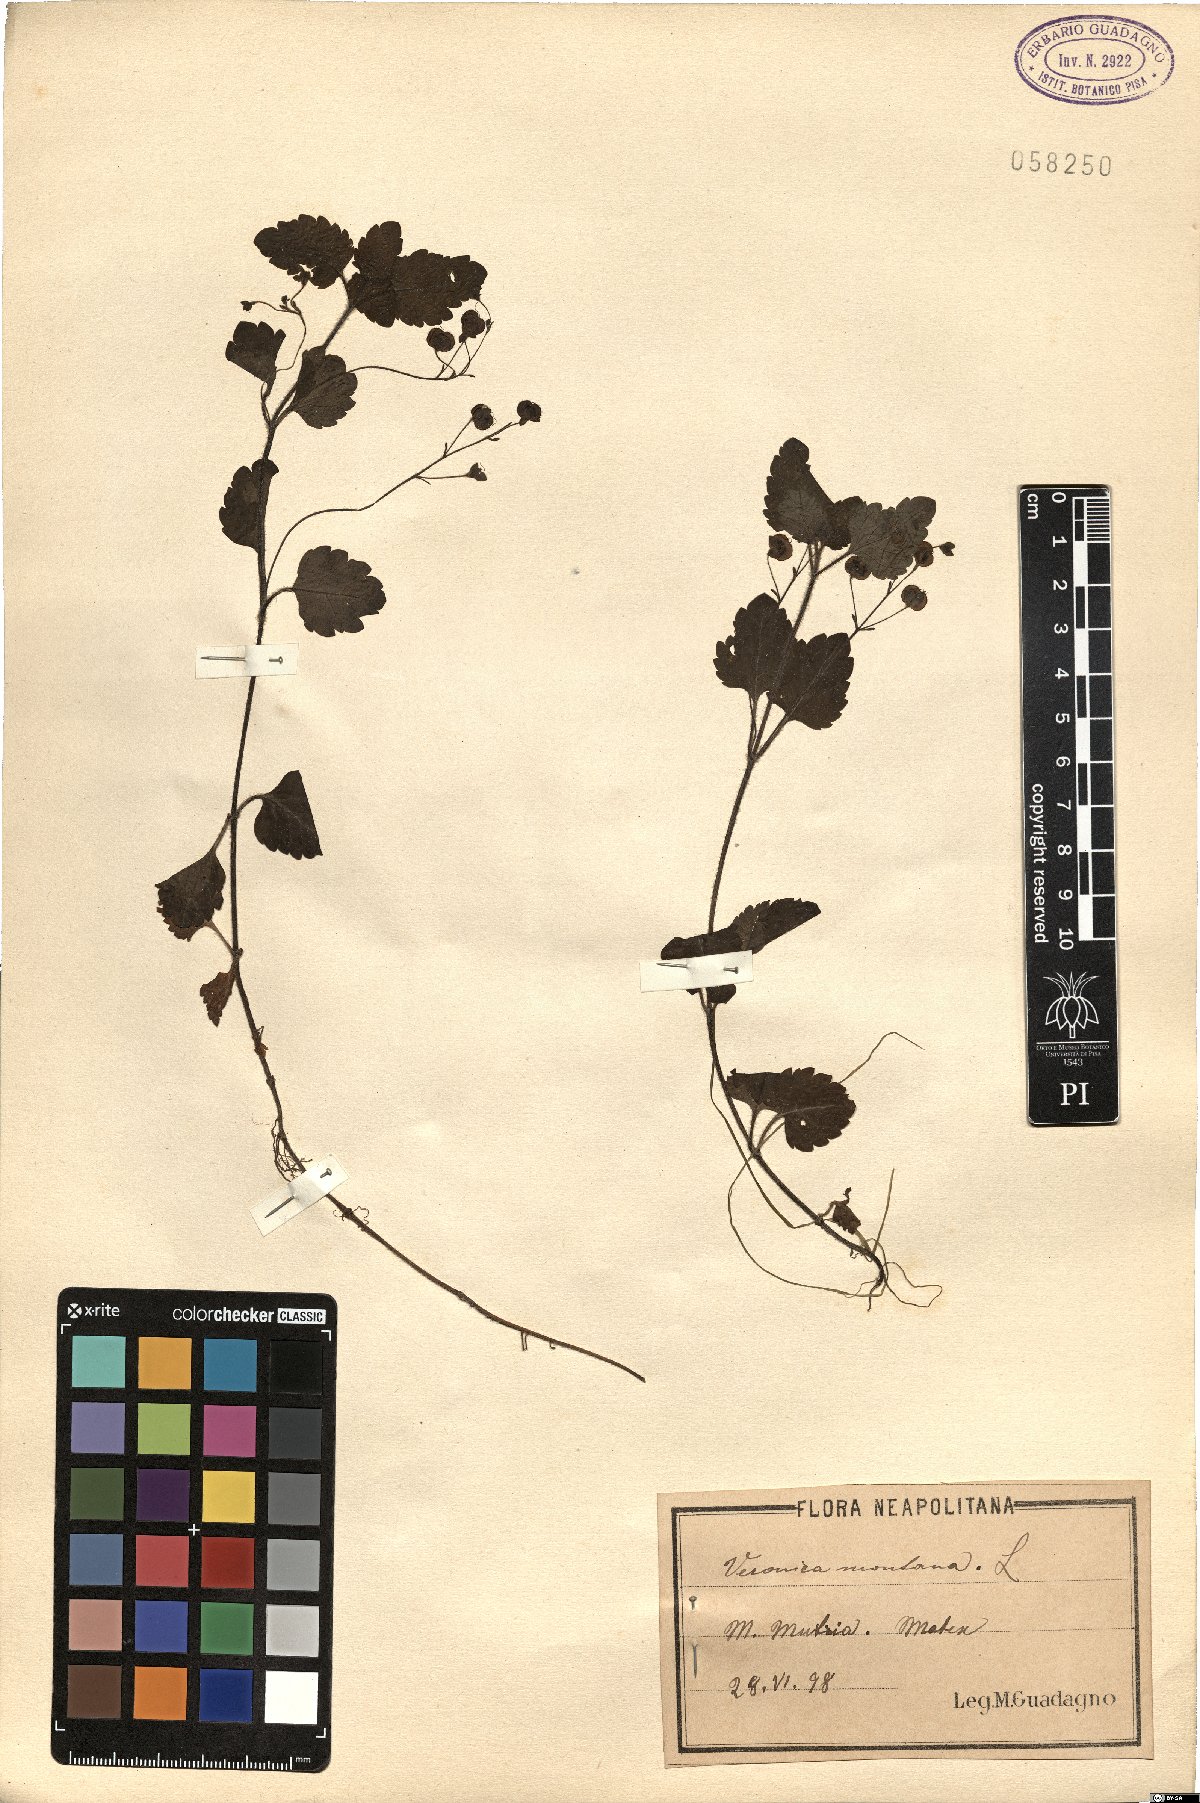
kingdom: Plantae
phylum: Tracheophyta
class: Magnoliopsida
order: Lamiales
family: Plantaginaceae
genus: Veronica
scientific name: Veronica montana
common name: Wood speedwell
